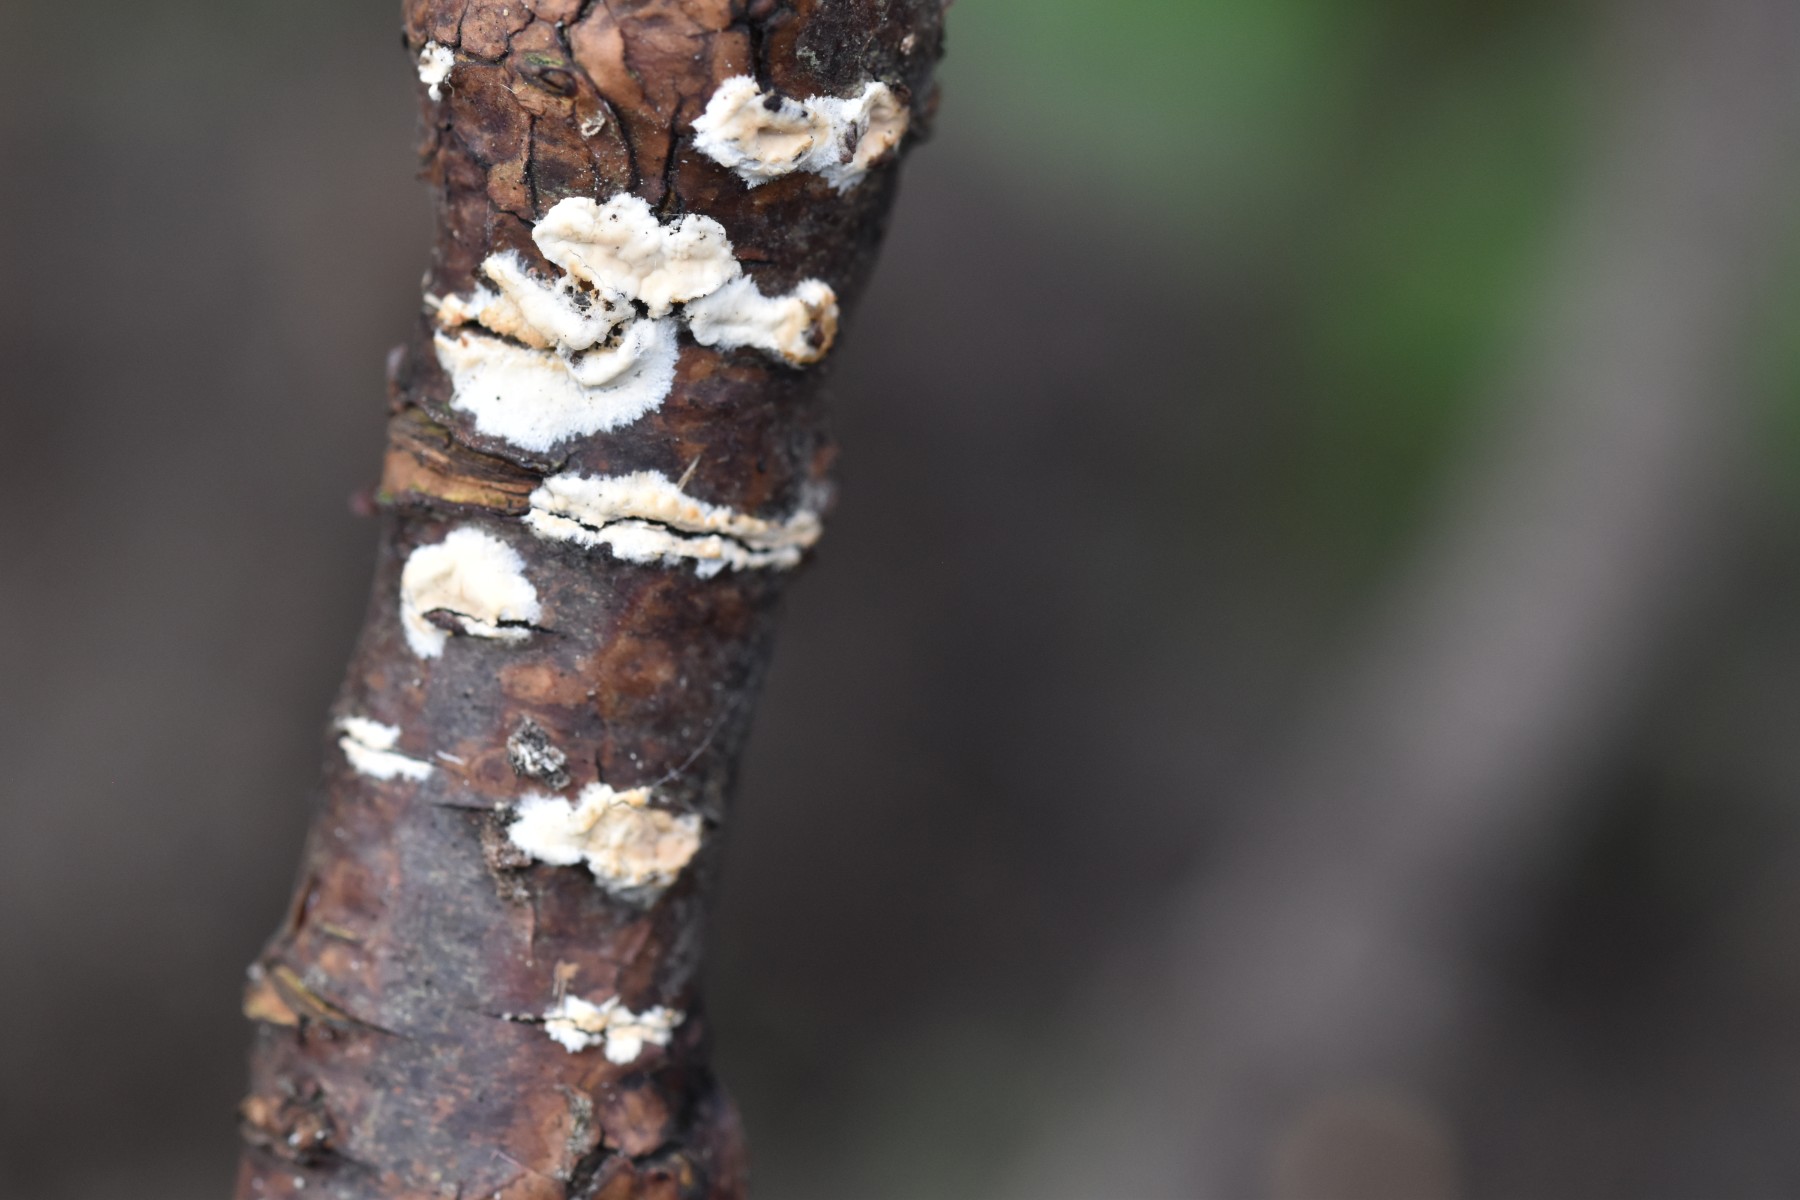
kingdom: Fungi
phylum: Basidiomycota
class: Agaricomycetes
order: Agaricales
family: Physalacriaceae
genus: Cylindrobasidium
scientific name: Cylindrobasidium evolvens
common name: sprækkehinde
